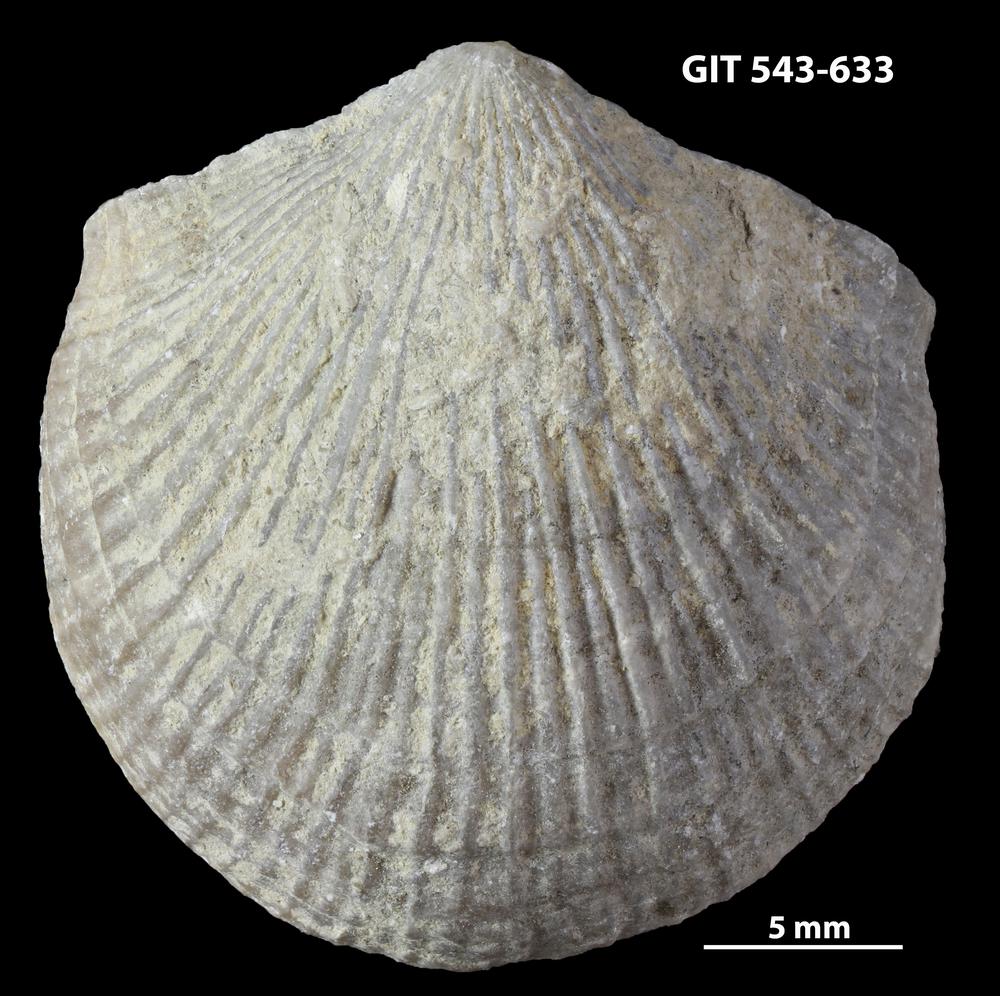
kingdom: Animalia
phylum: Brachiopoda
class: Rhynchonellata
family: Clitambonitidae
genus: Vellamo
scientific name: Vellamo Orthis verneuili
